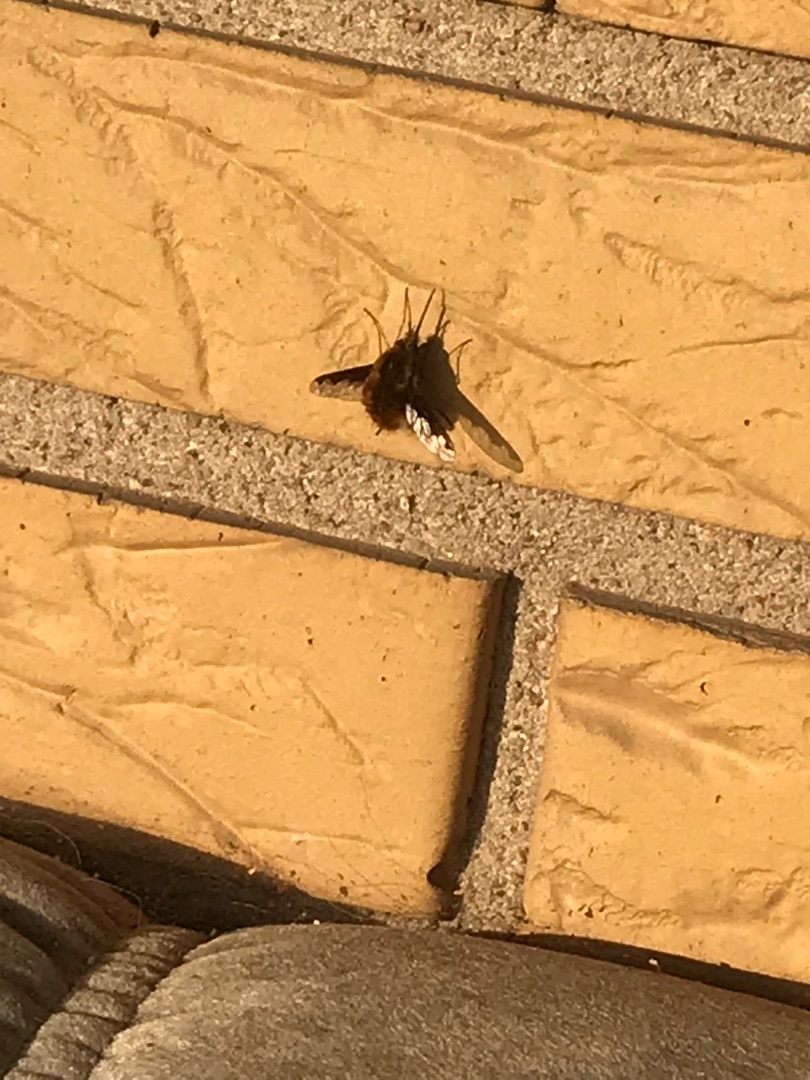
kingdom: Animalia
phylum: Arthropoda
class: Insecta
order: Diptera
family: Bombyliidae
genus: Bombylius
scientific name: Bombylius major
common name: Stor humleflue
